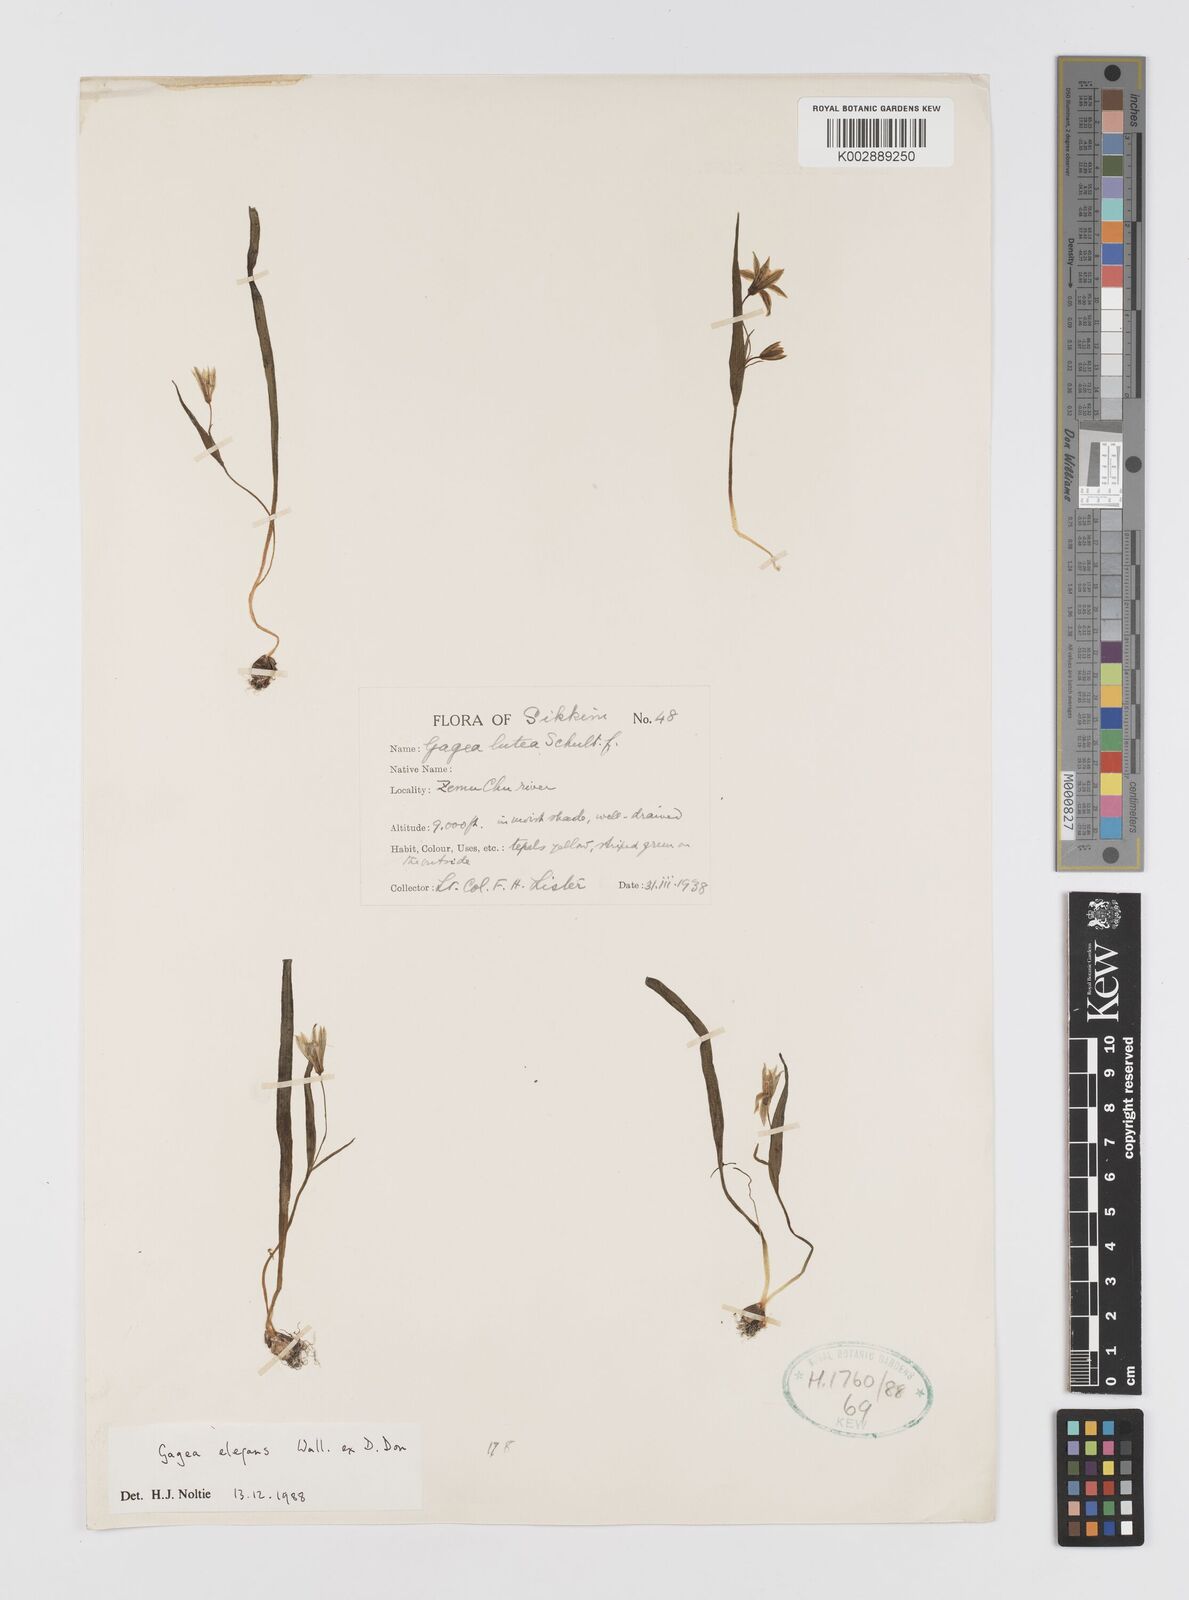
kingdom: Plantae
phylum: Tracheophyta
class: Liliopsida
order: Liliales
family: Liliaceae
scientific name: Liliaceae
